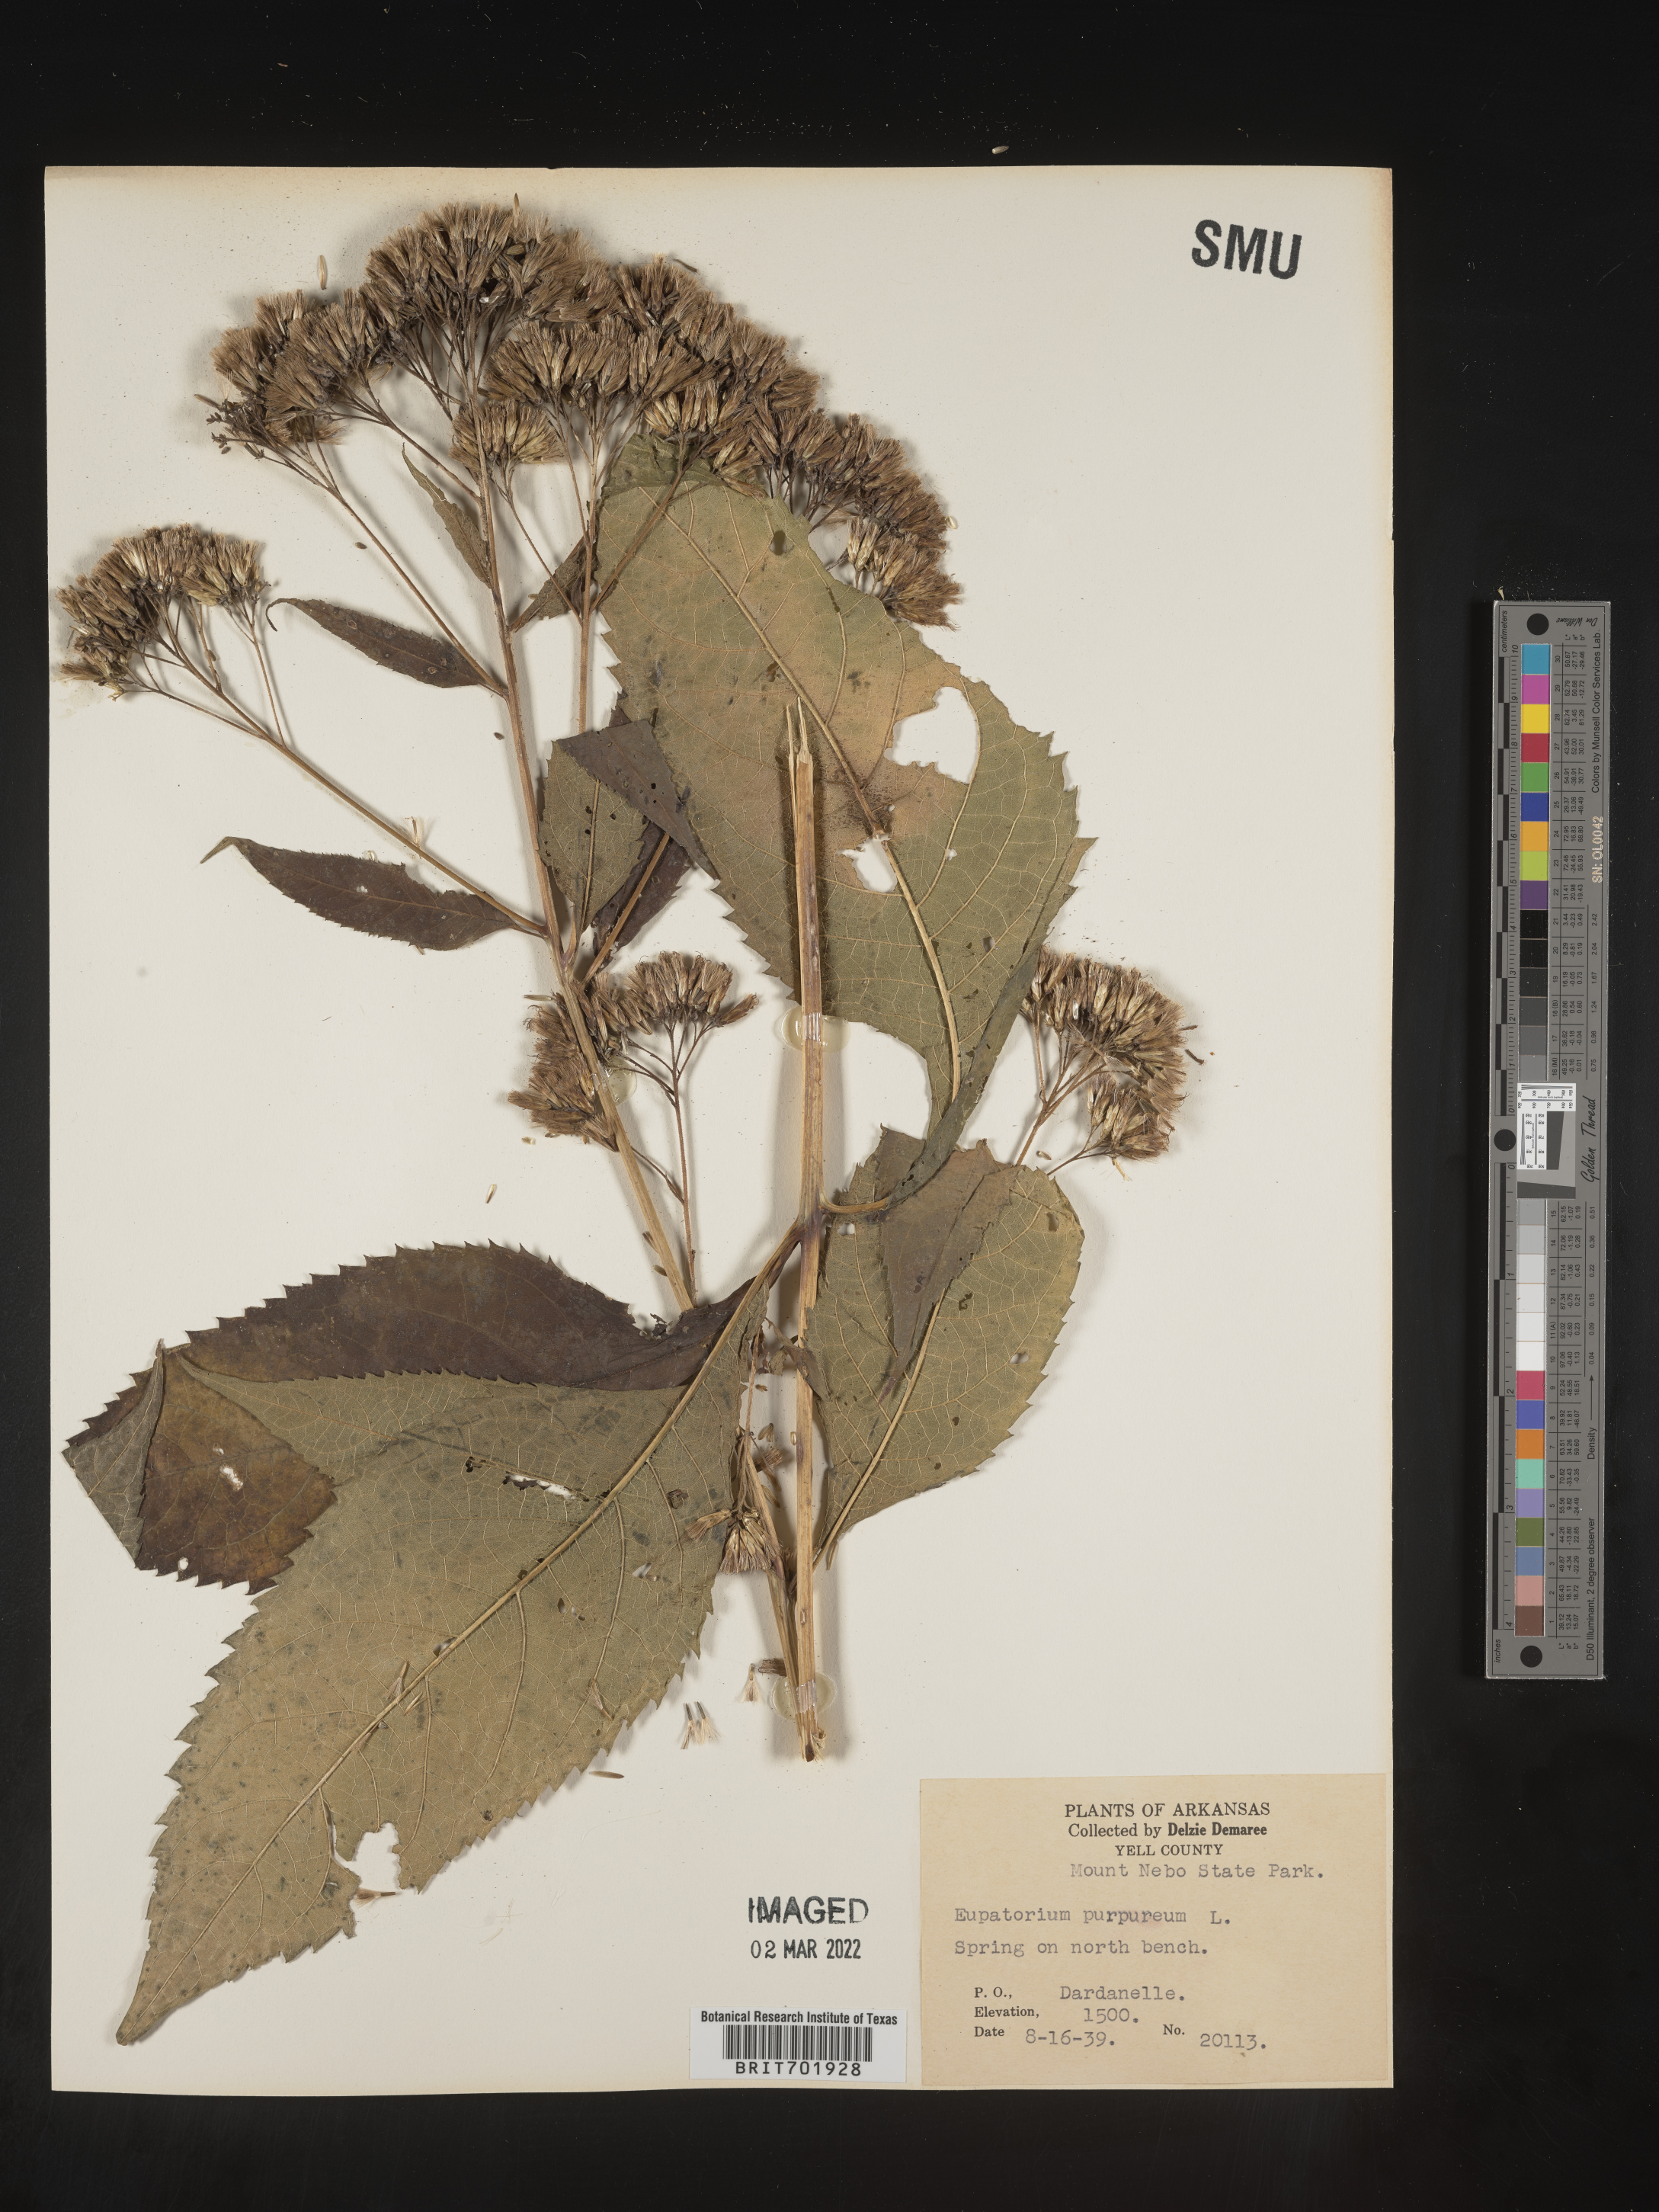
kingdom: Plantae
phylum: Tracheophyta
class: Magnoliopsida
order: Asterales
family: Asteraceae
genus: Eupatorium
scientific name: Eupatorium quaternum
